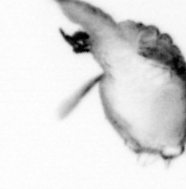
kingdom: Animalia
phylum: Arthropoda
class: Copepoda
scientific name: Copepoda
